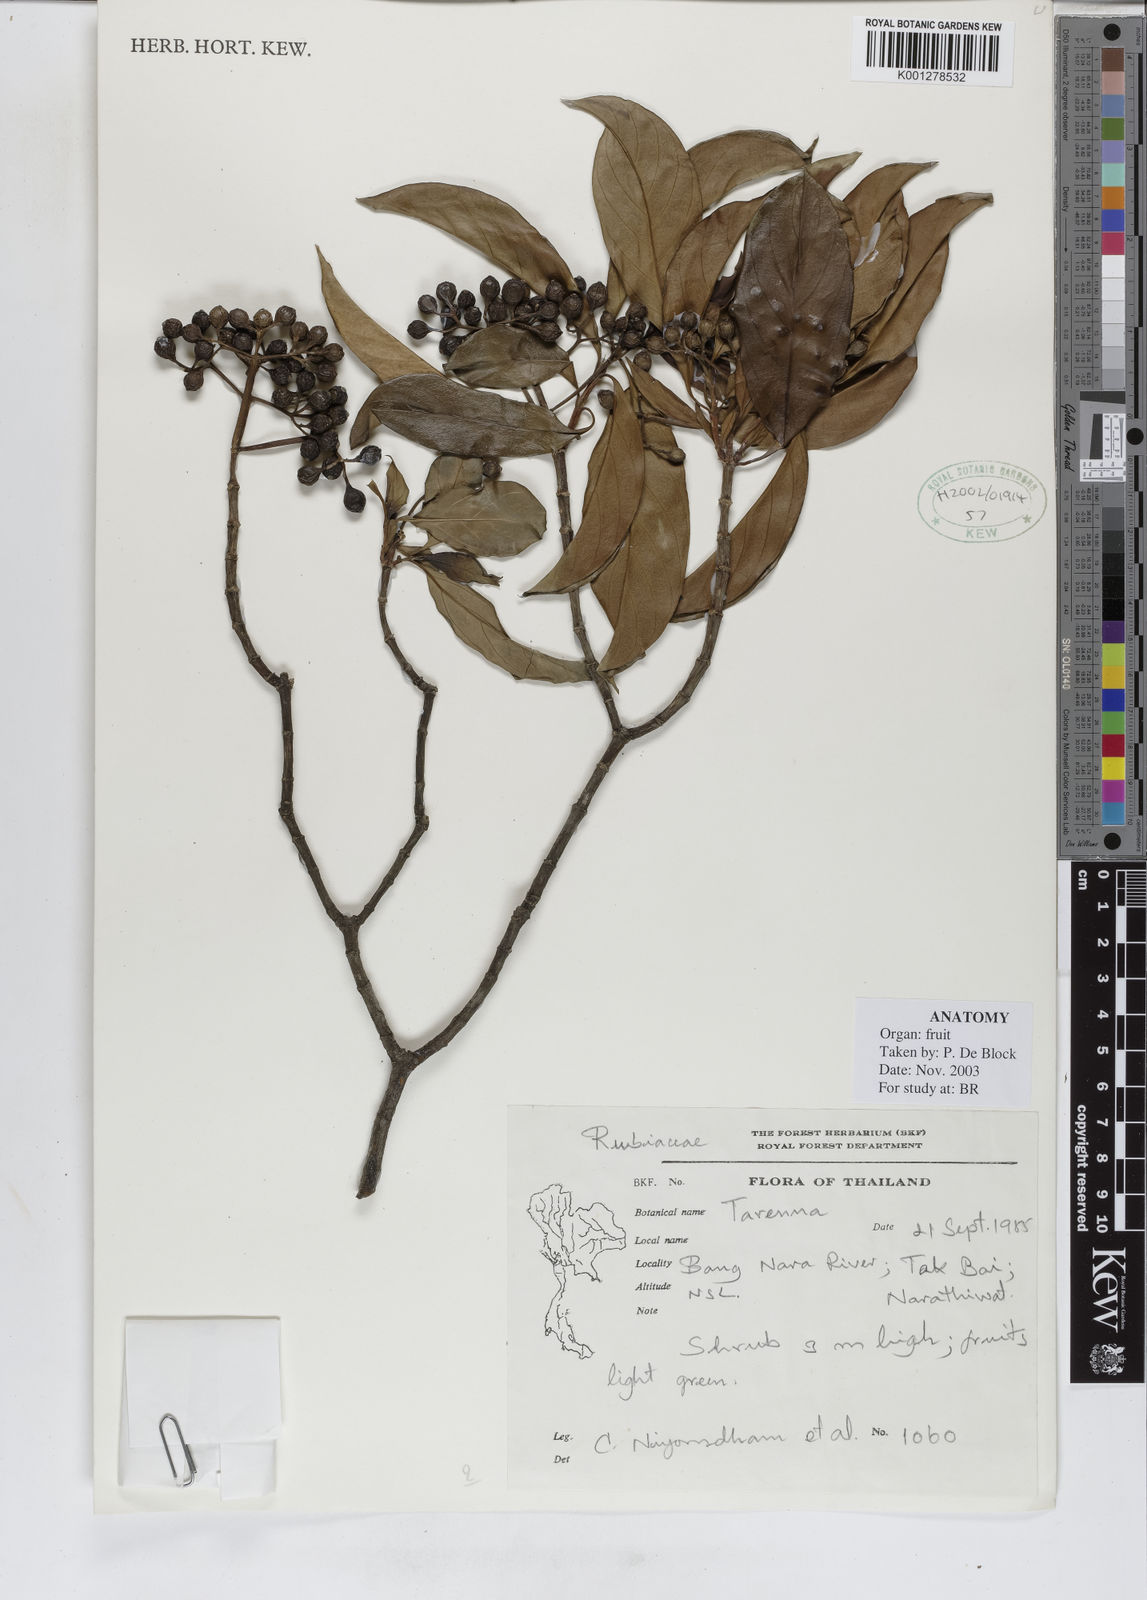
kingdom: Plantae
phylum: Tracheophyta
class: Magnoliopsida
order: Gentianales
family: Rubiaceae
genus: Tarenna
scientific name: Tarenna
